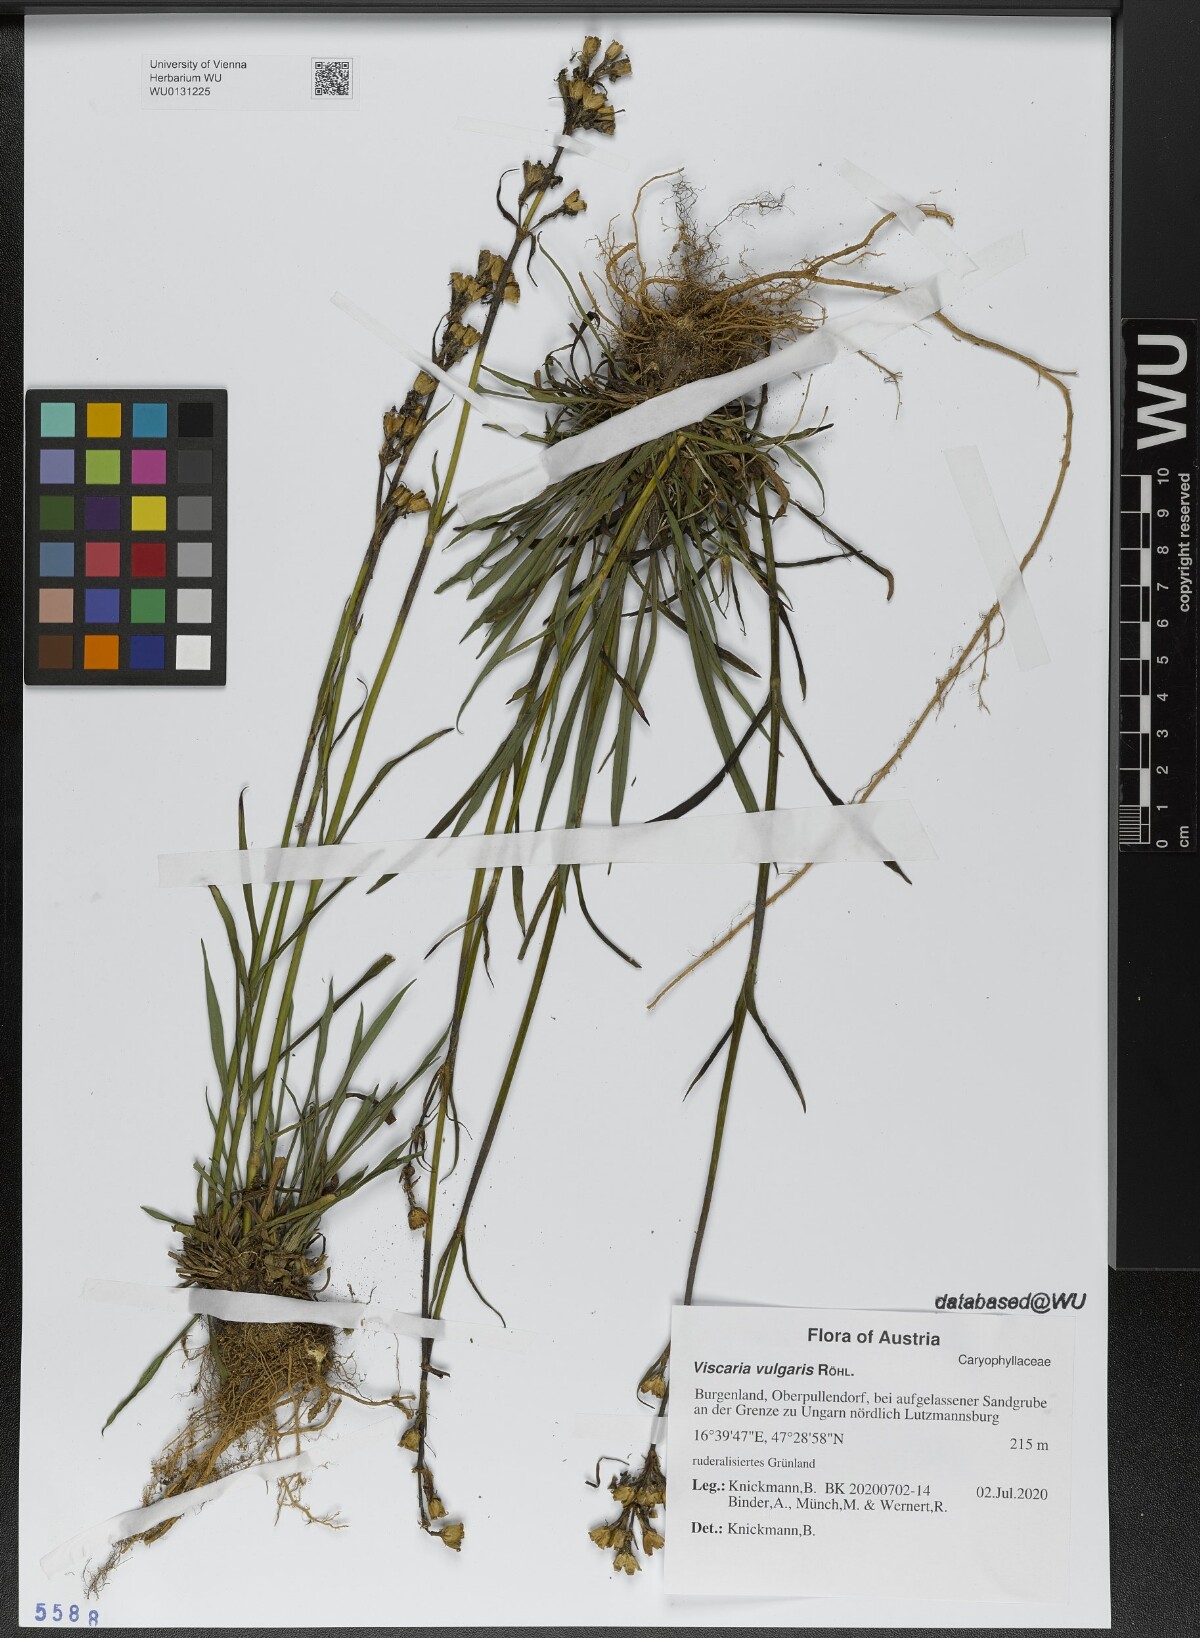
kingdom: Plantae
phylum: Tracheophyta
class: Magnoliopsida
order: Caryophyllales
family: Caryophyllaceae
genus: Viscaria
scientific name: Viscaria vulgaris
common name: Clammy campion
